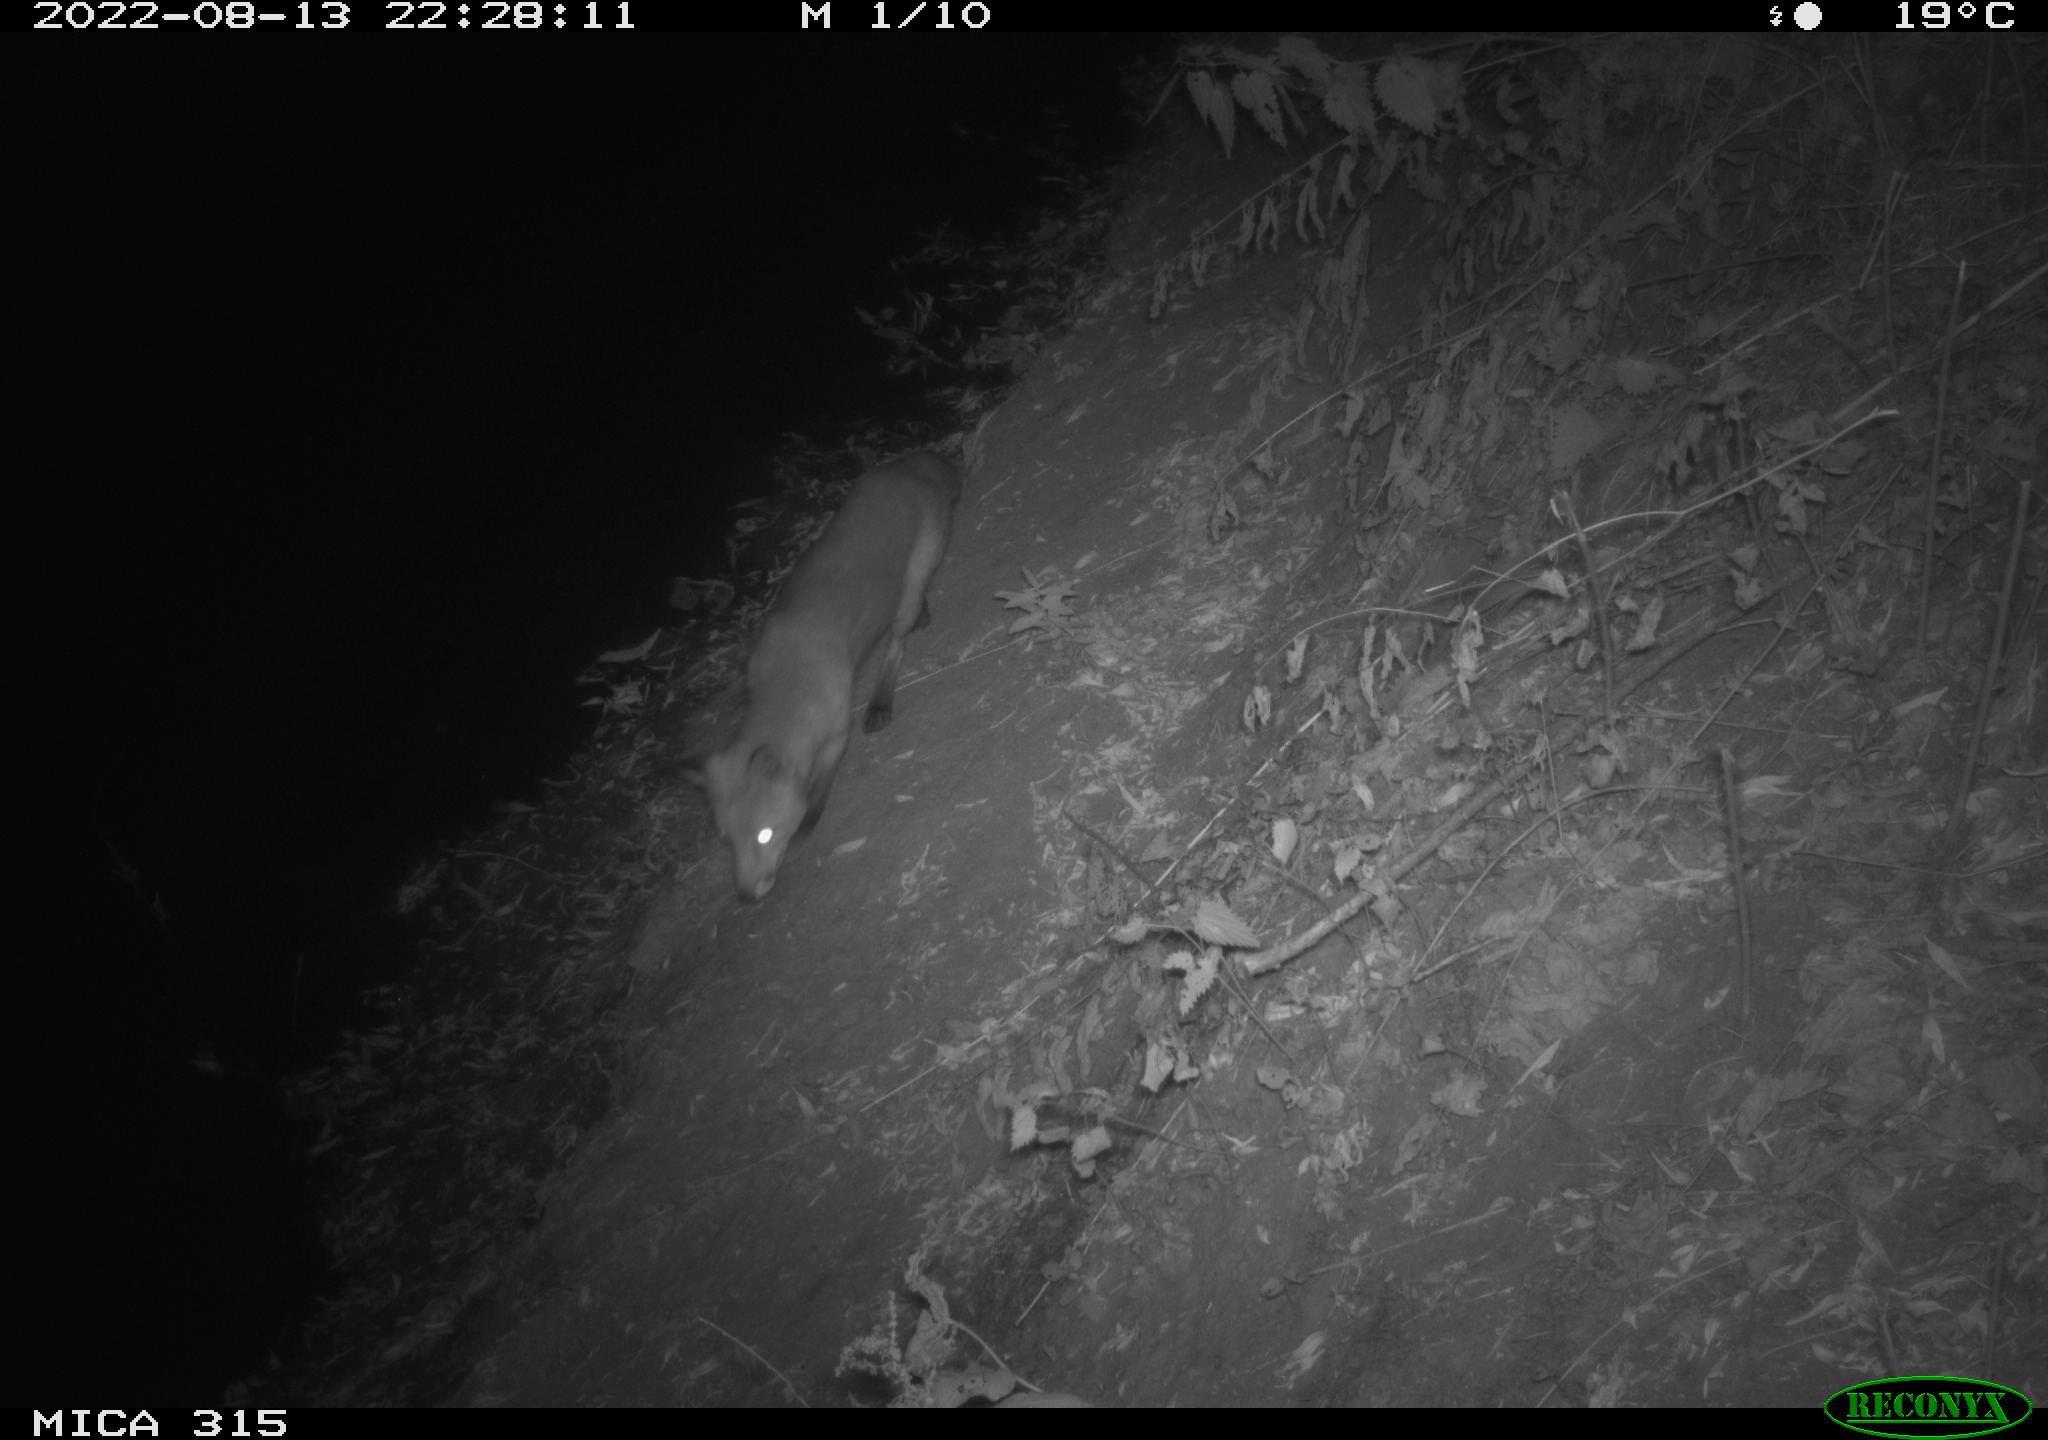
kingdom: Animalia
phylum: Chordata
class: Mammalia
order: Carnivora
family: Canidae
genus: Vulpes
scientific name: Vulpes vulpes
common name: Red fox
